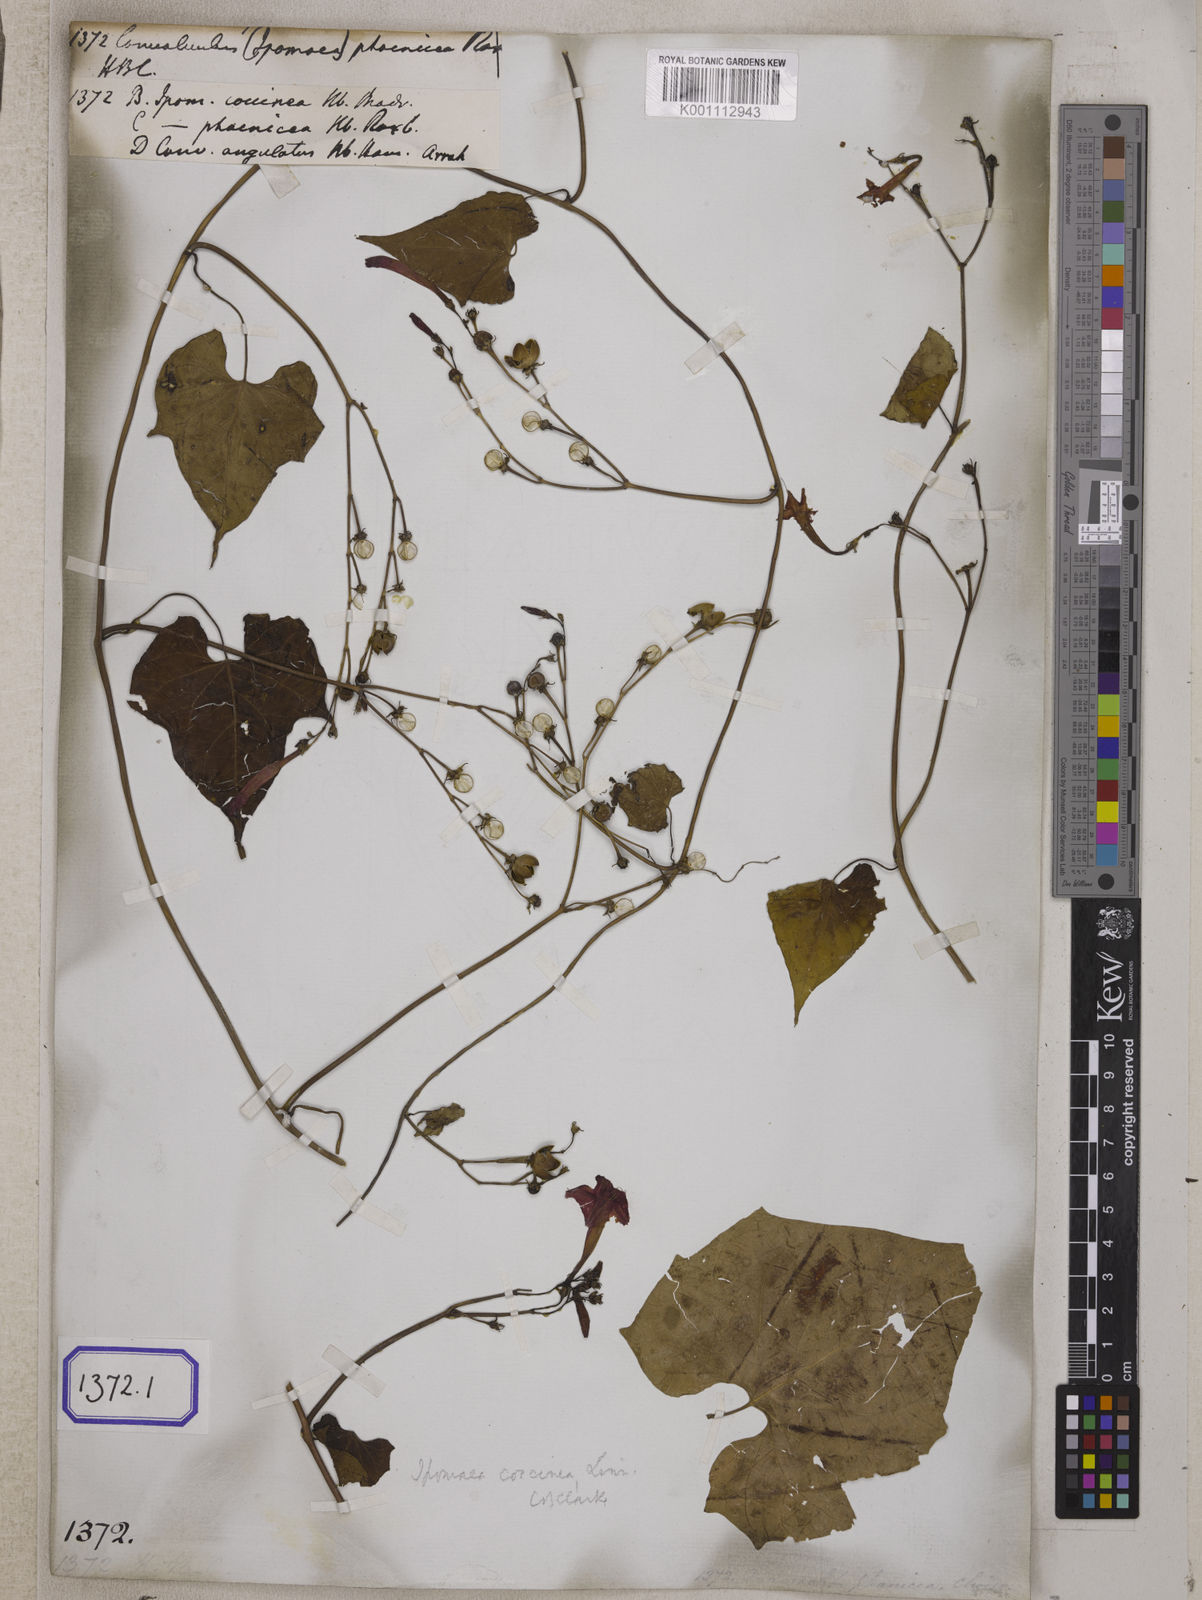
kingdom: Plantae
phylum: Tracheophyta
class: Magnoliopsida
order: Solanales
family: Convolvulaceae
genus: Convolvulus
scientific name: Convolvulus
